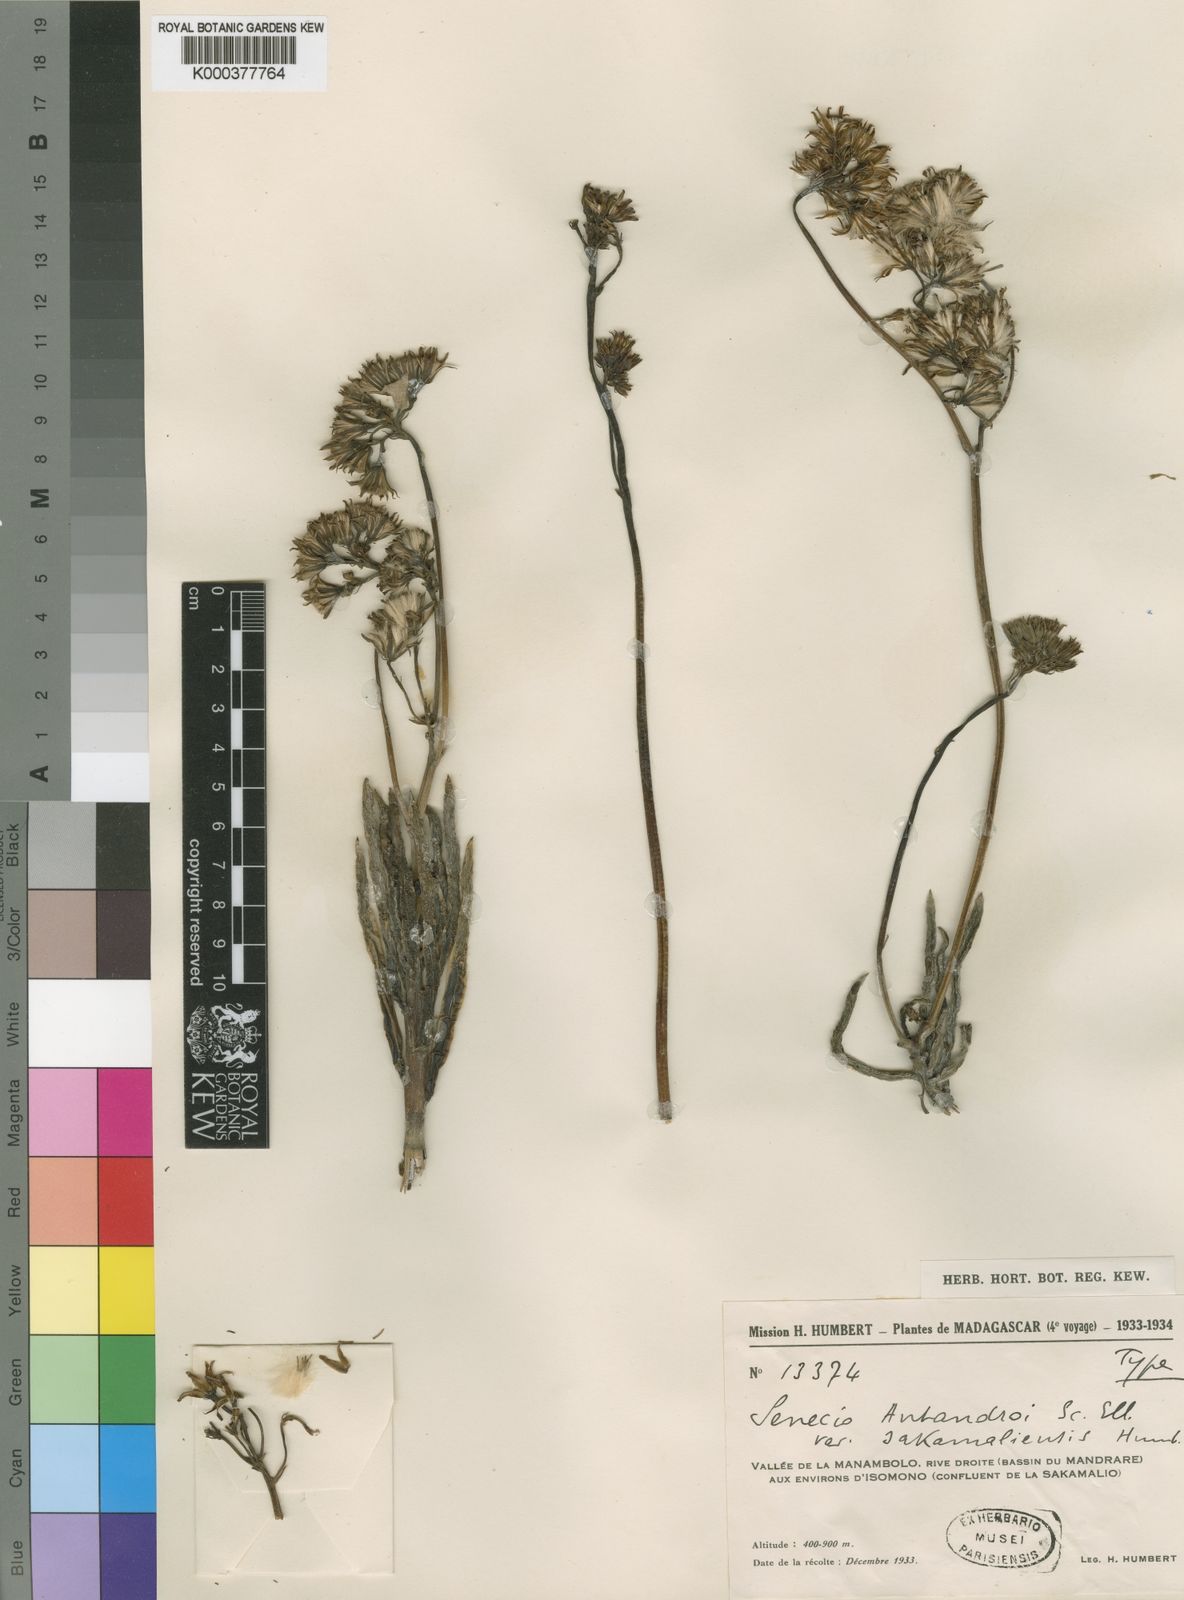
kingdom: Plantae
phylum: Tracheophyta
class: Magnoliopsida
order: Asterales
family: Asteraceae
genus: Senecio
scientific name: Senecio antandroi
